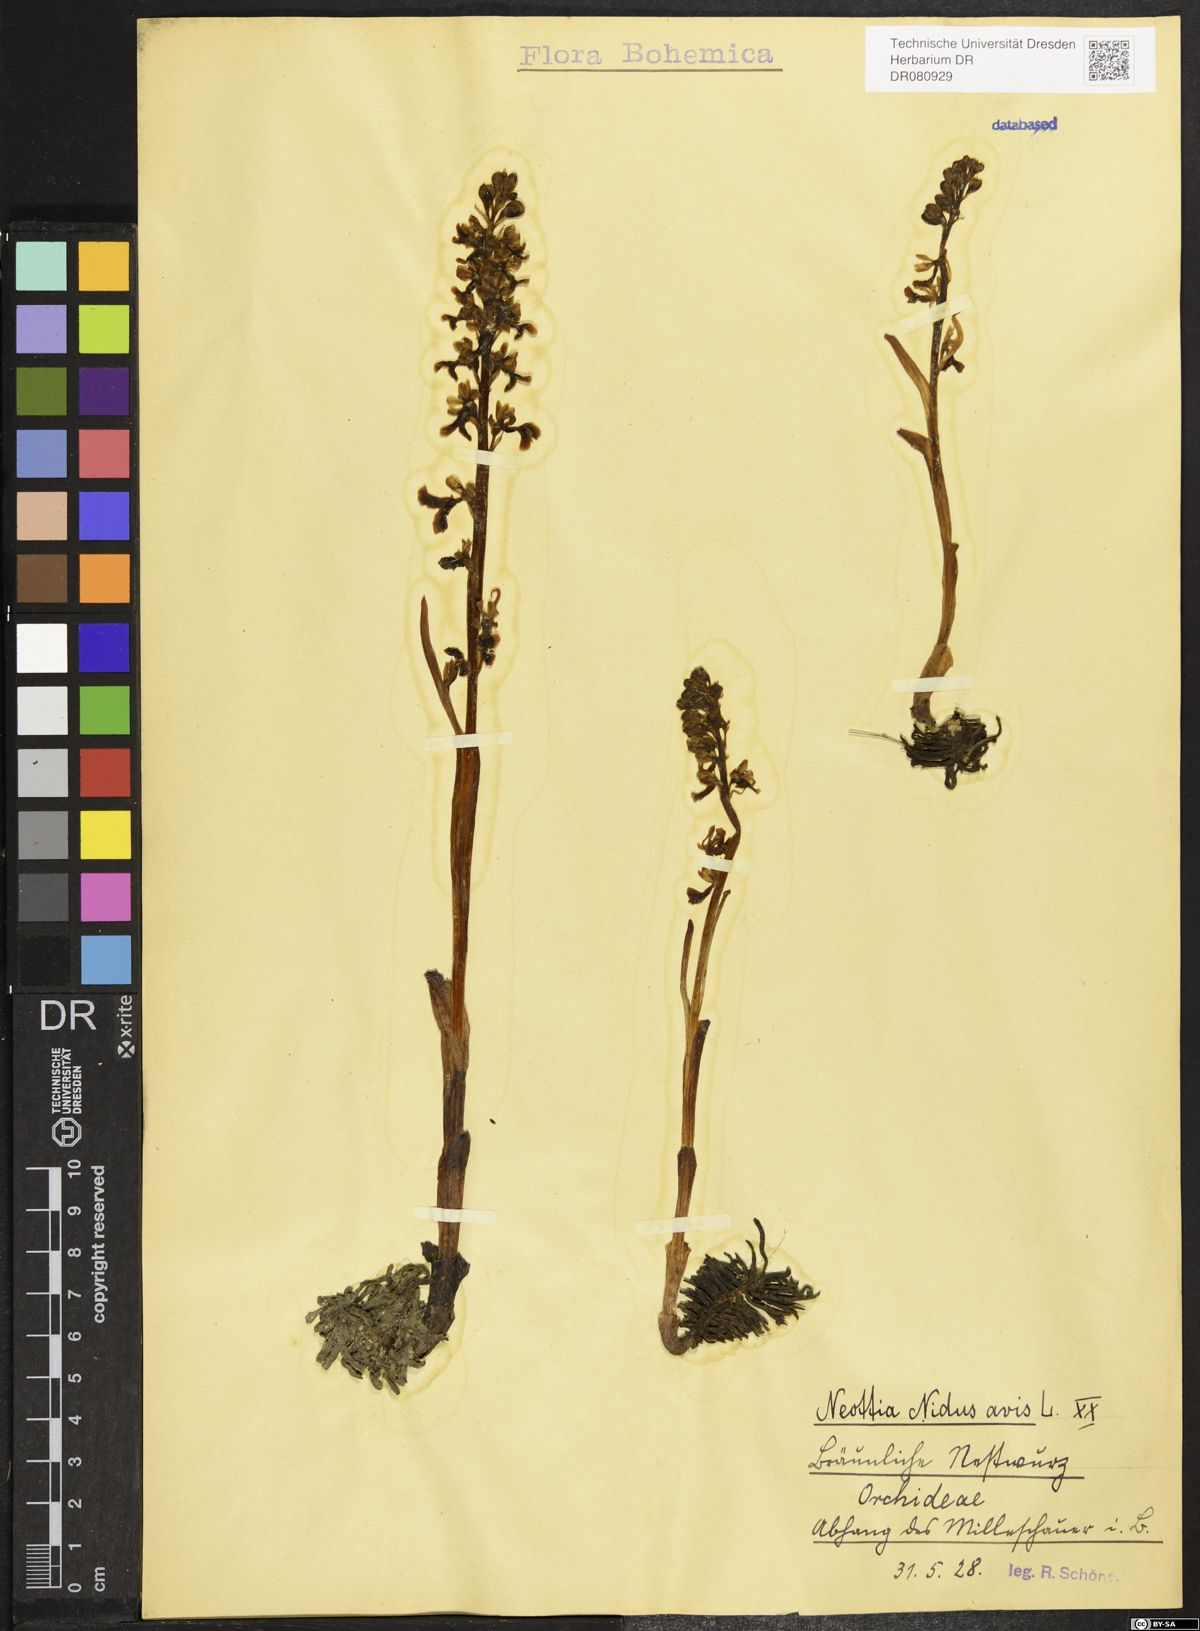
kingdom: Plantae
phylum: Tracheophyta
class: Liliopsida
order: Asparagales
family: Orchidaceae
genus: Neottia
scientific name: Neottia nidus-avis
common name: Bird's-nest orchid
